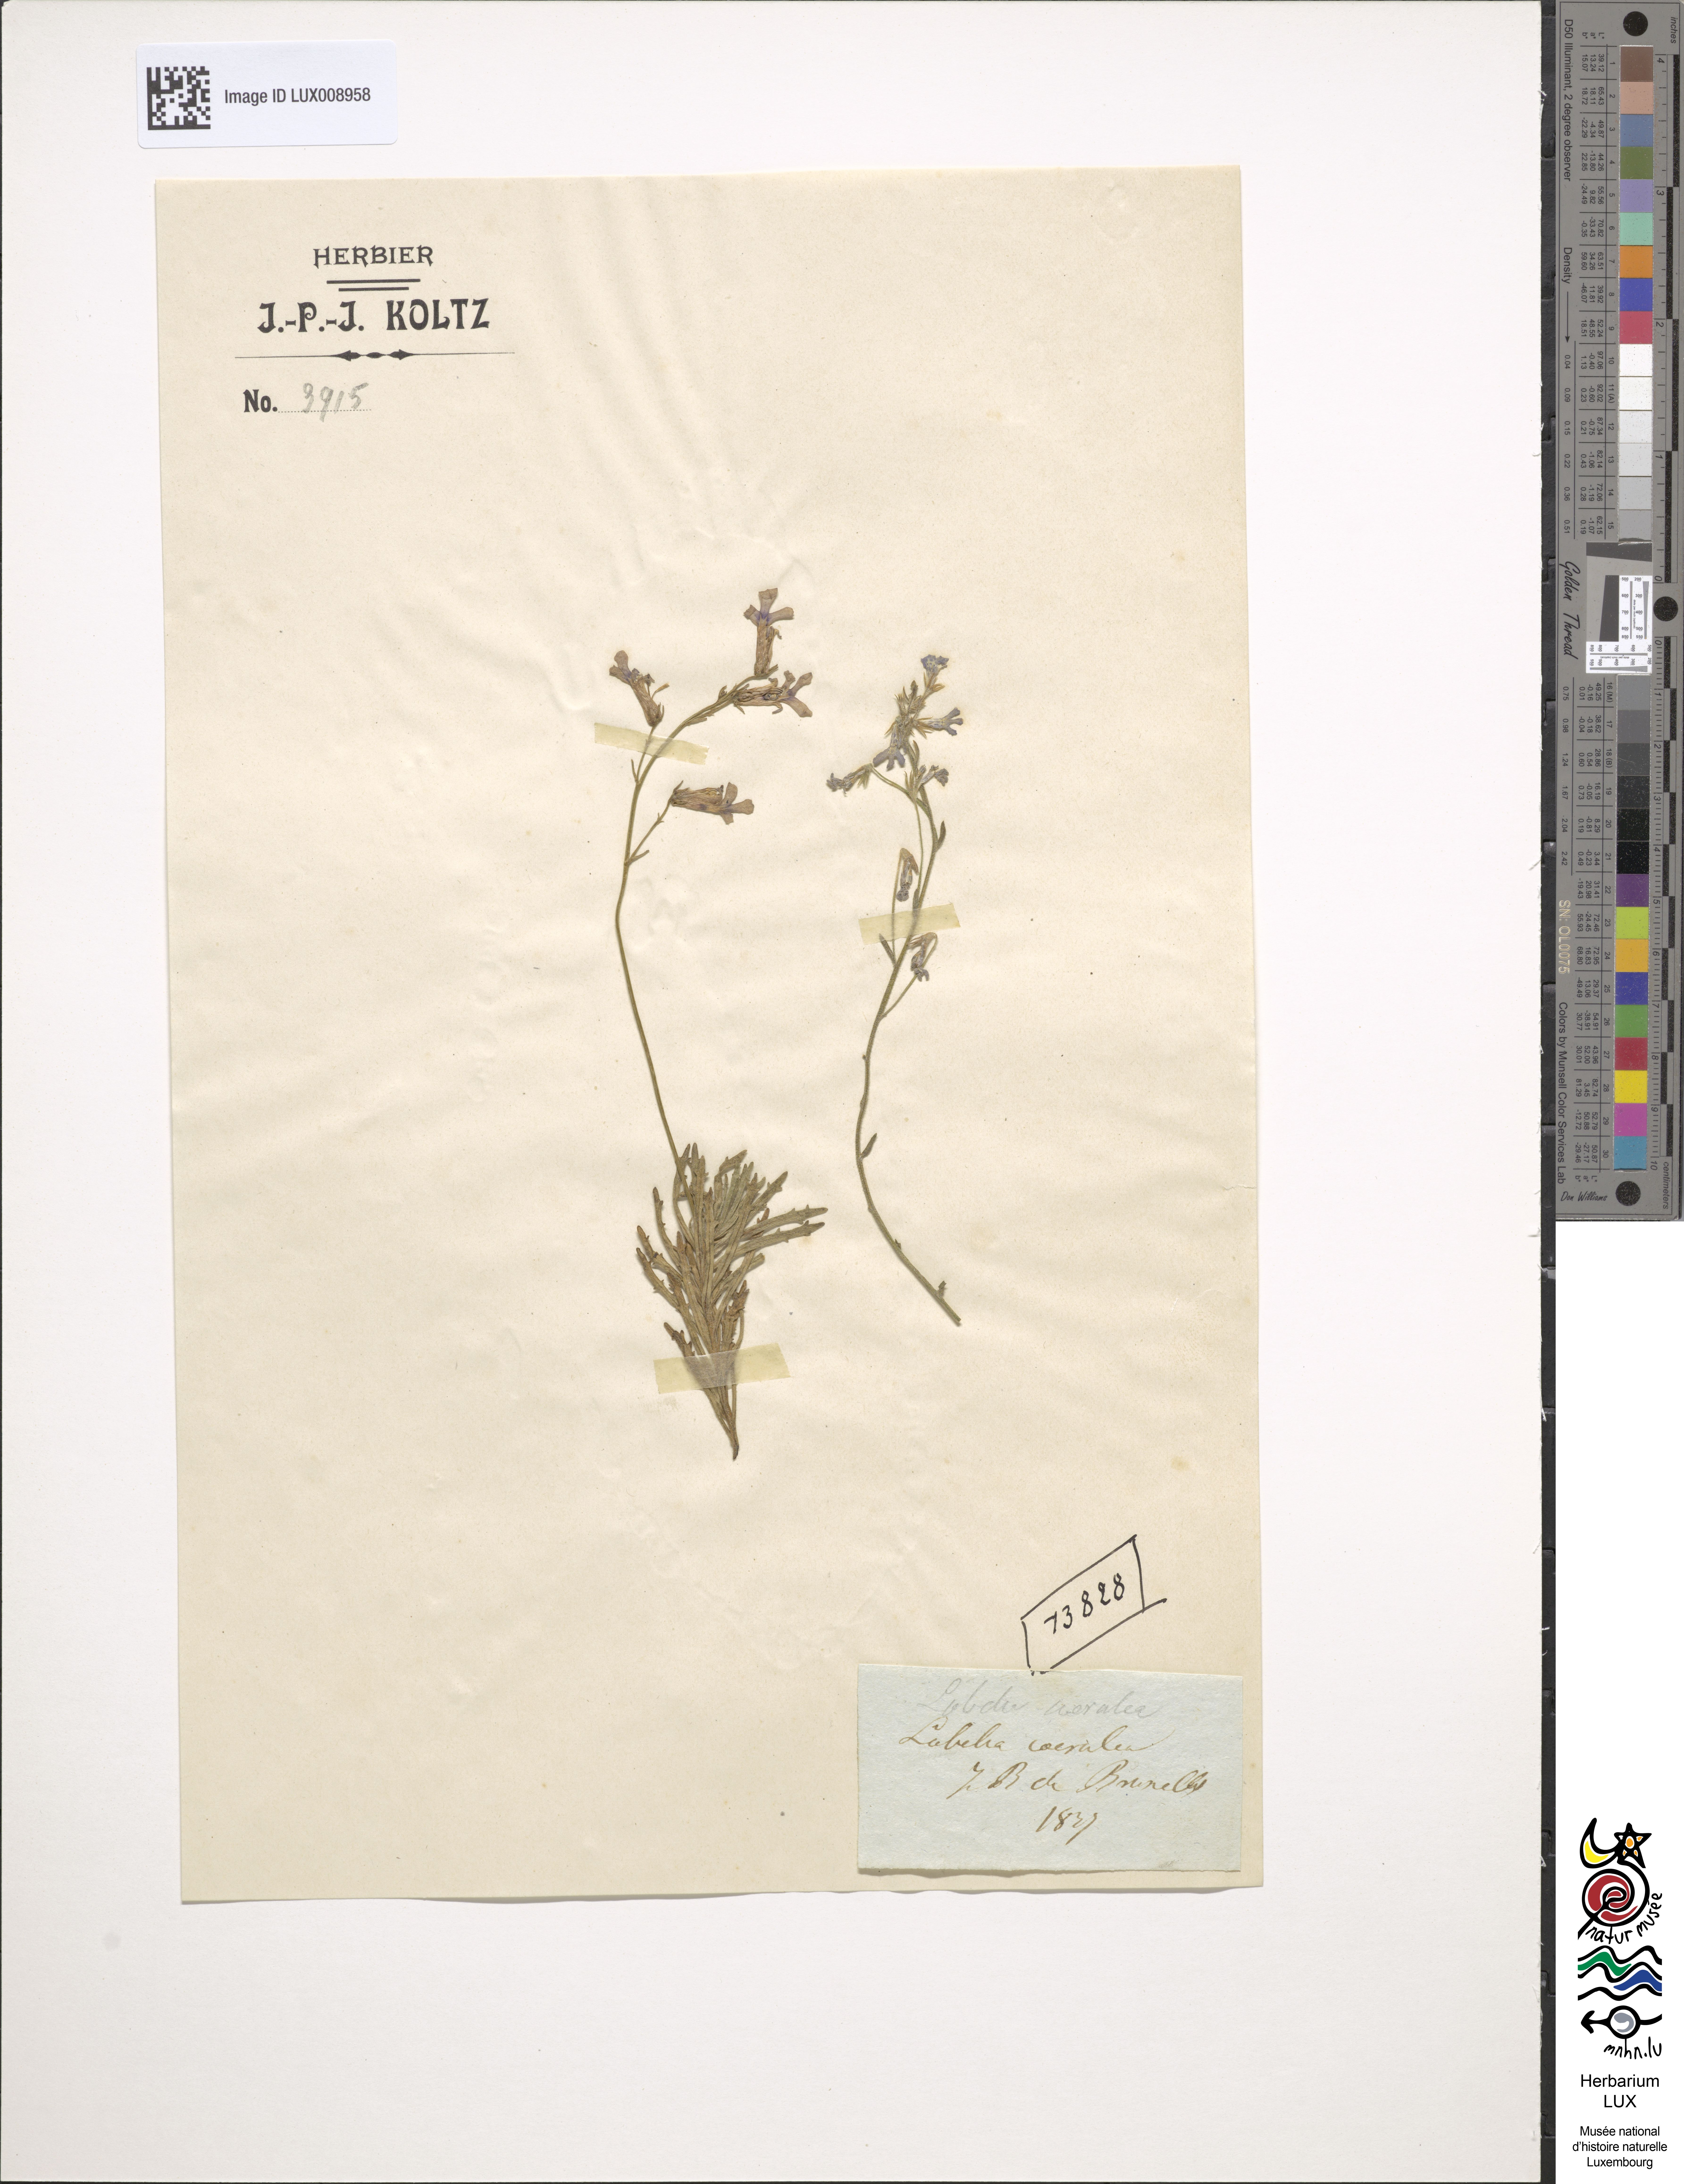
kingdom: Plantae
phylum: Tracheophyta
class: Magnoliopsida
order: Asterales
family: Campanulaceae
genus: Lobelia
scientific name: Lobelia caerulea
